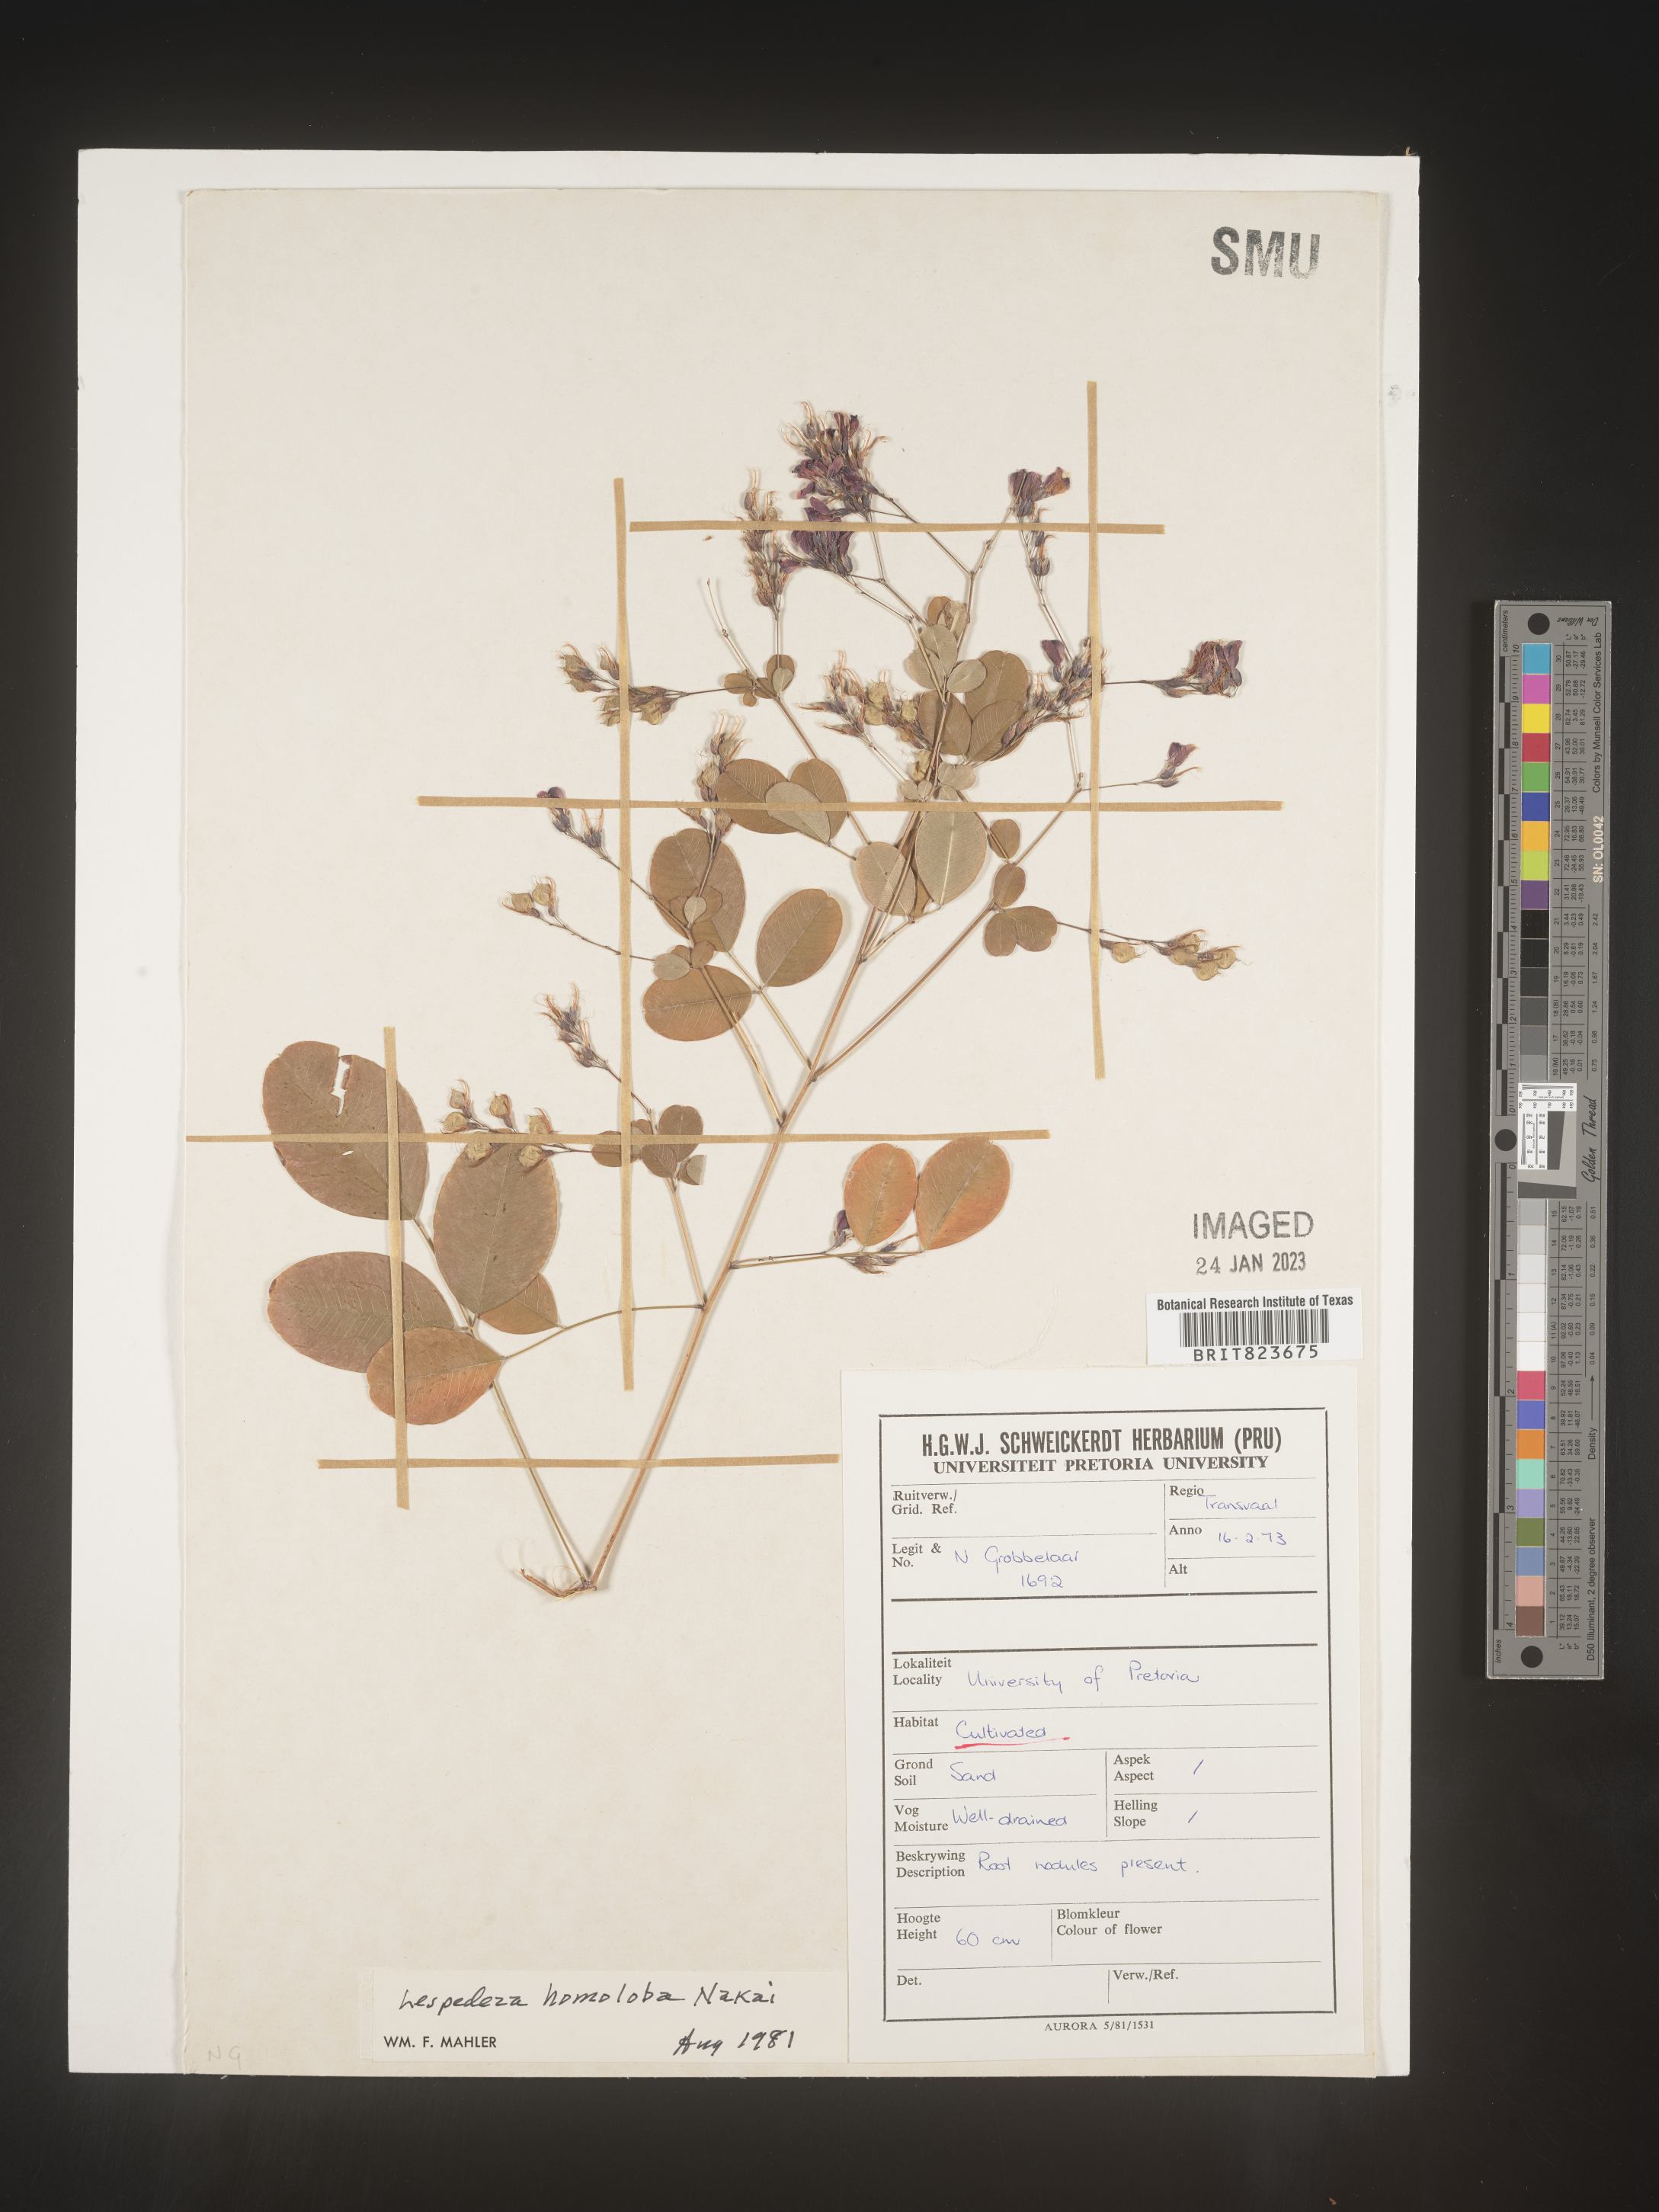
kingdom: Plantae
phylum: Tracheophyta
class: Magnoliopsida
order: Fabales
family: Fabaceae
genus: Lespedeza
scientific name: Lespedeza
